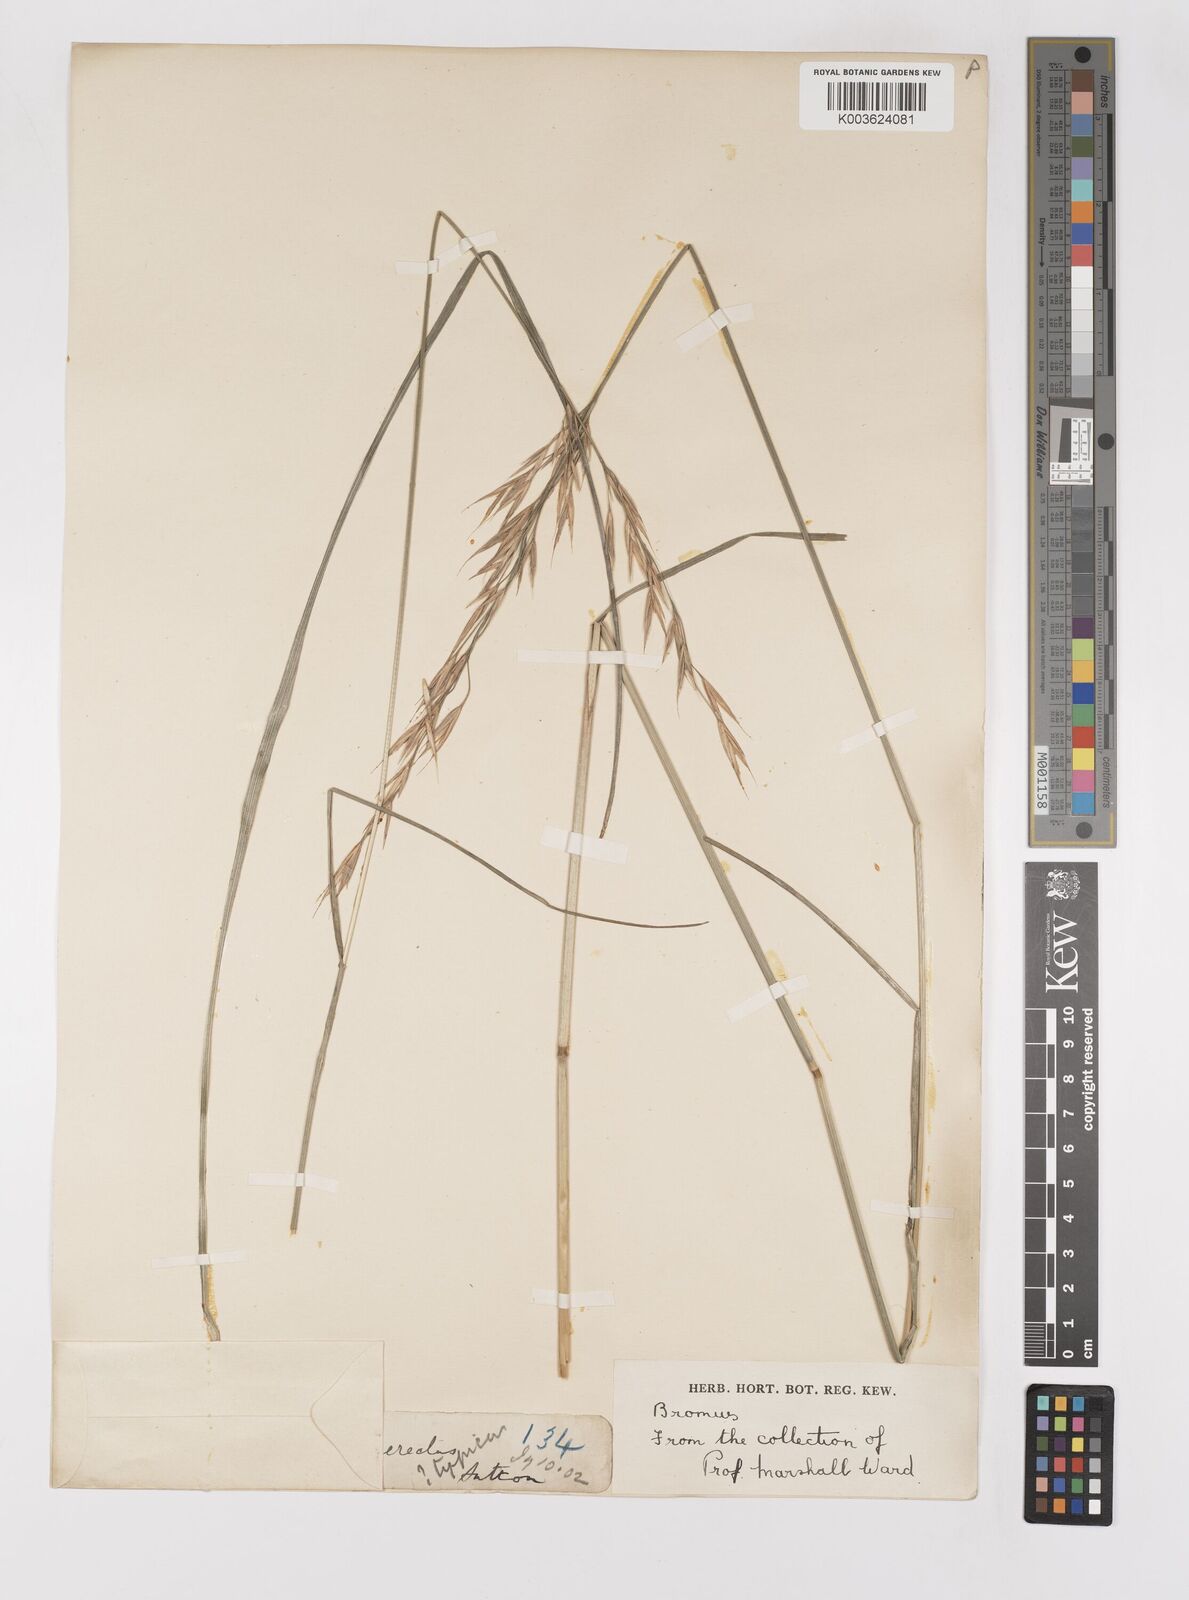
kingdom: Plantae
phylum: Tracheophyta
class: Liliopsida
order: Poales
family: Poaceae
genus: Bromus
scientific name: Bromus erectus
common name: Erect brome
